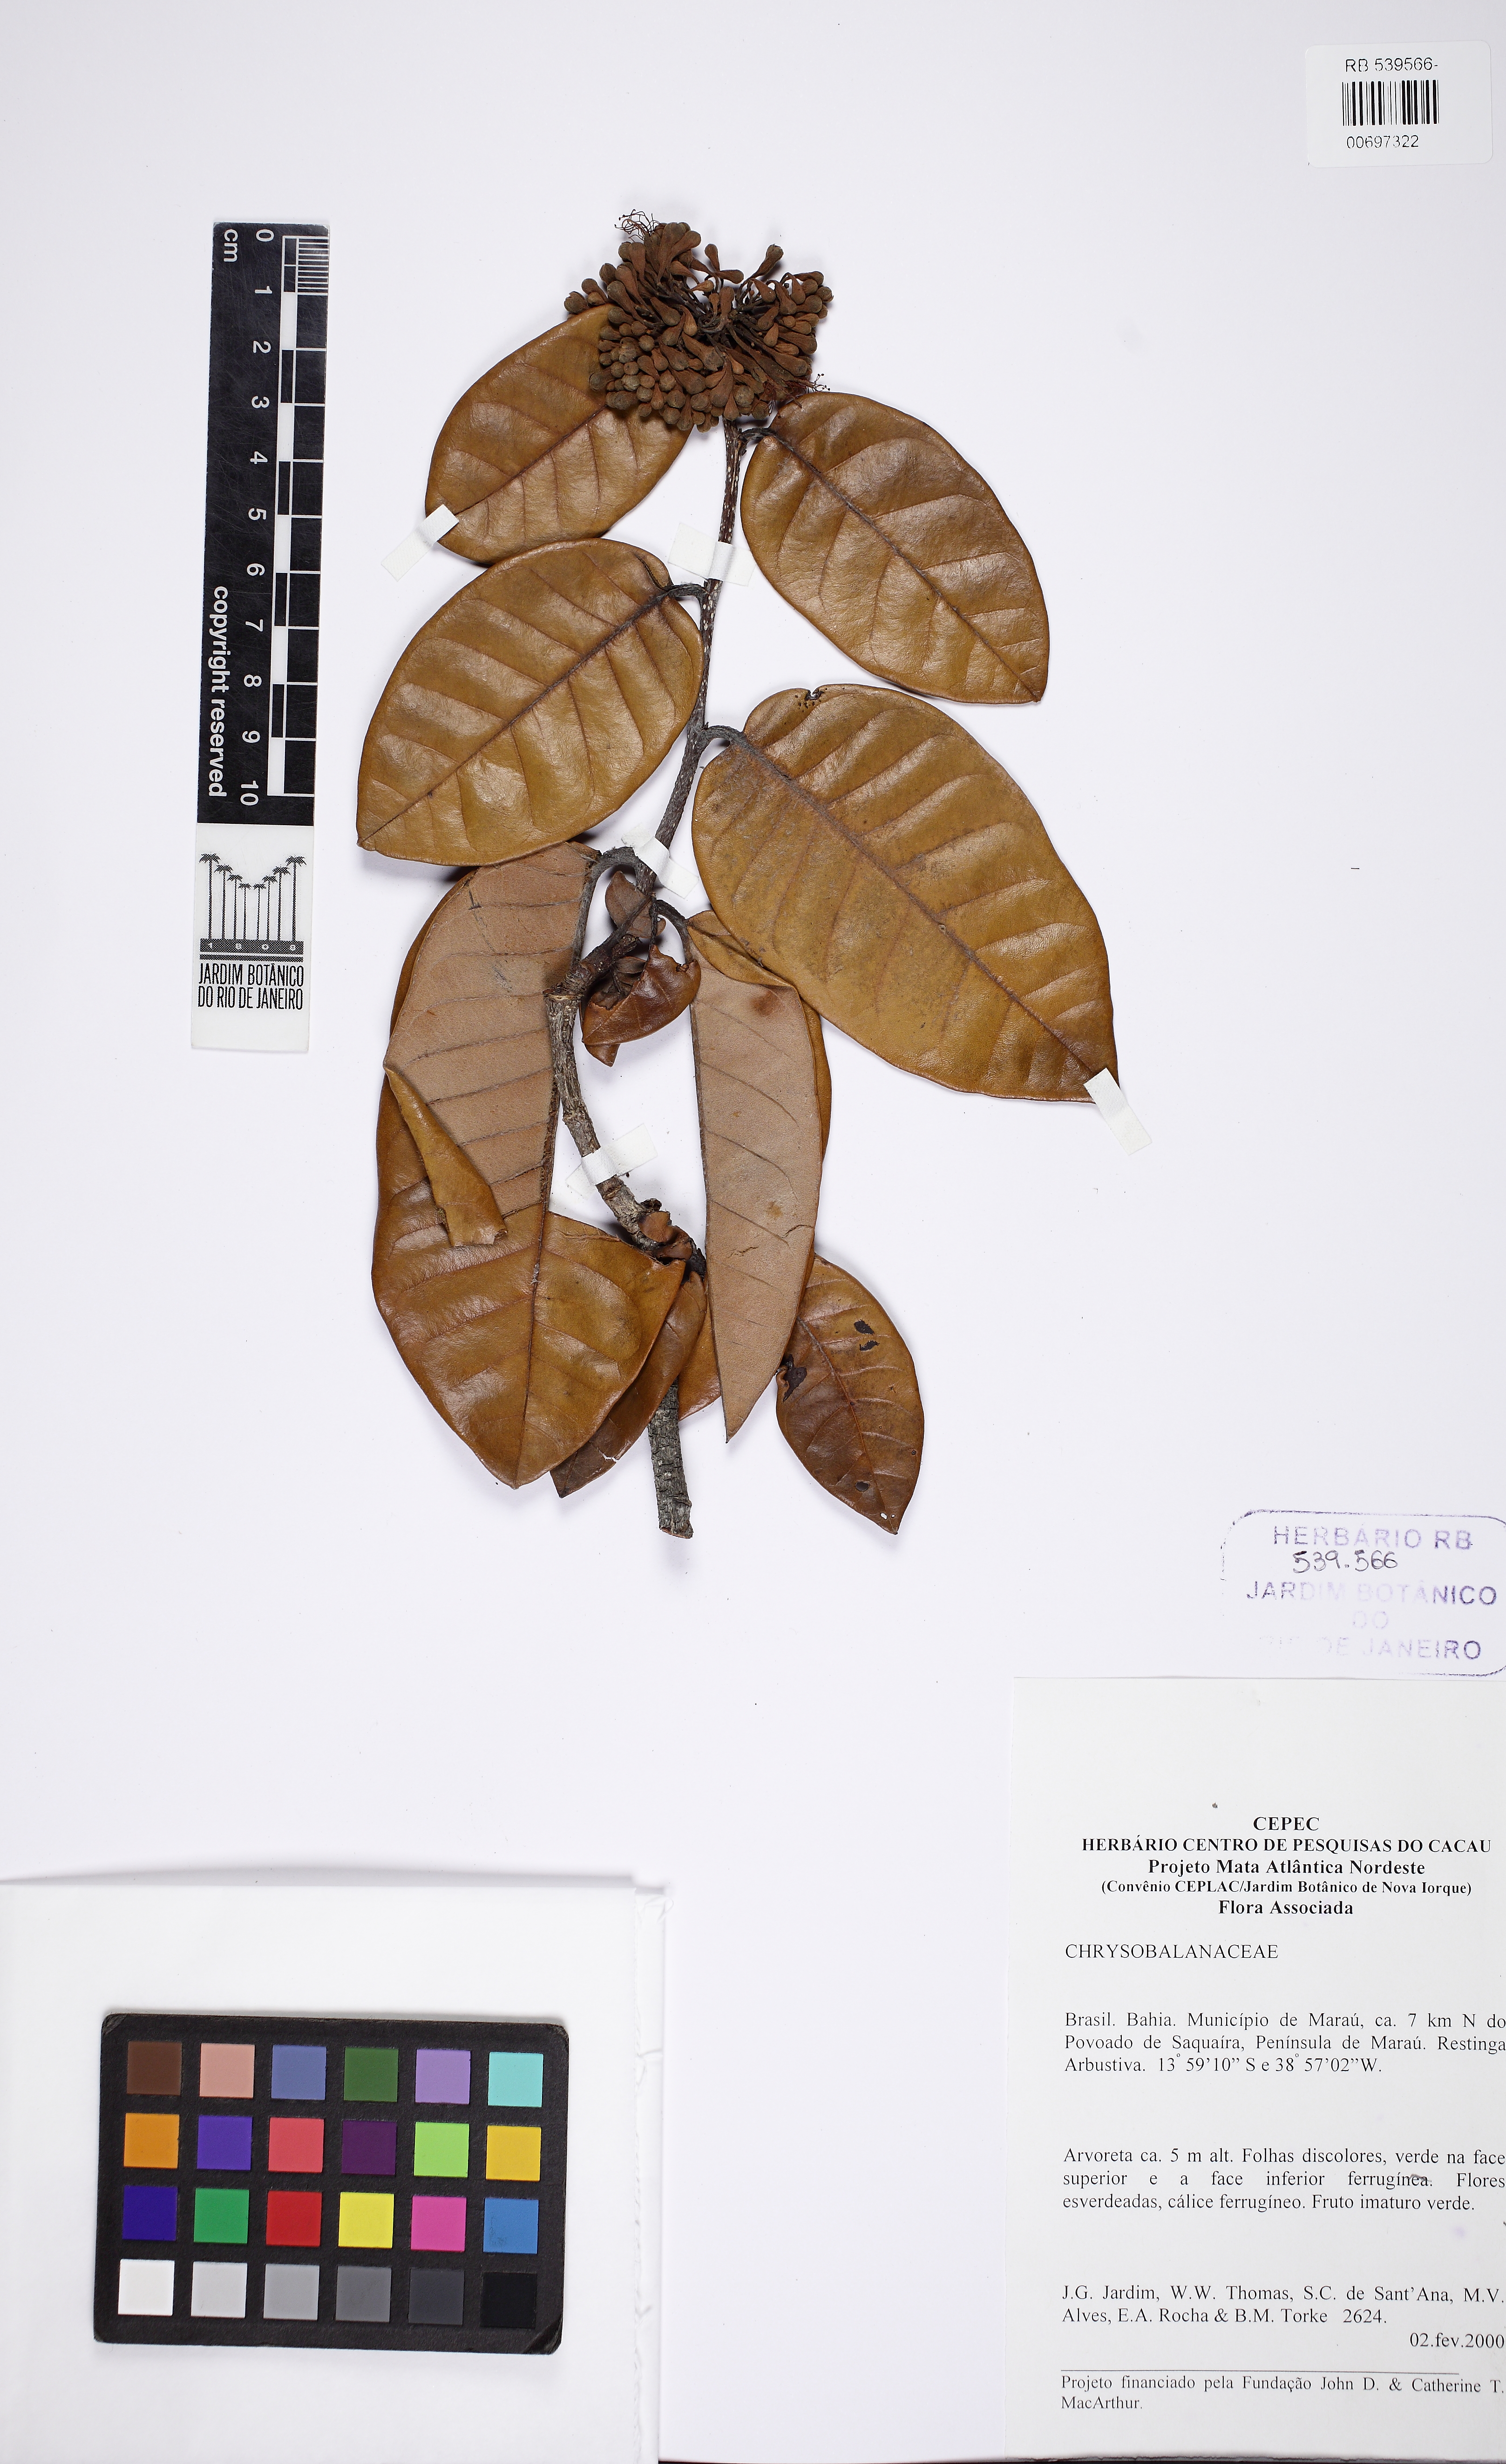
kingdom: Plantae
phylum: Tracheophyta
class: Magnoliopsida
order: Malpighiales
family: Chrysobalanaceae
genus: Couepia
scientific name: Couepia coarctata
